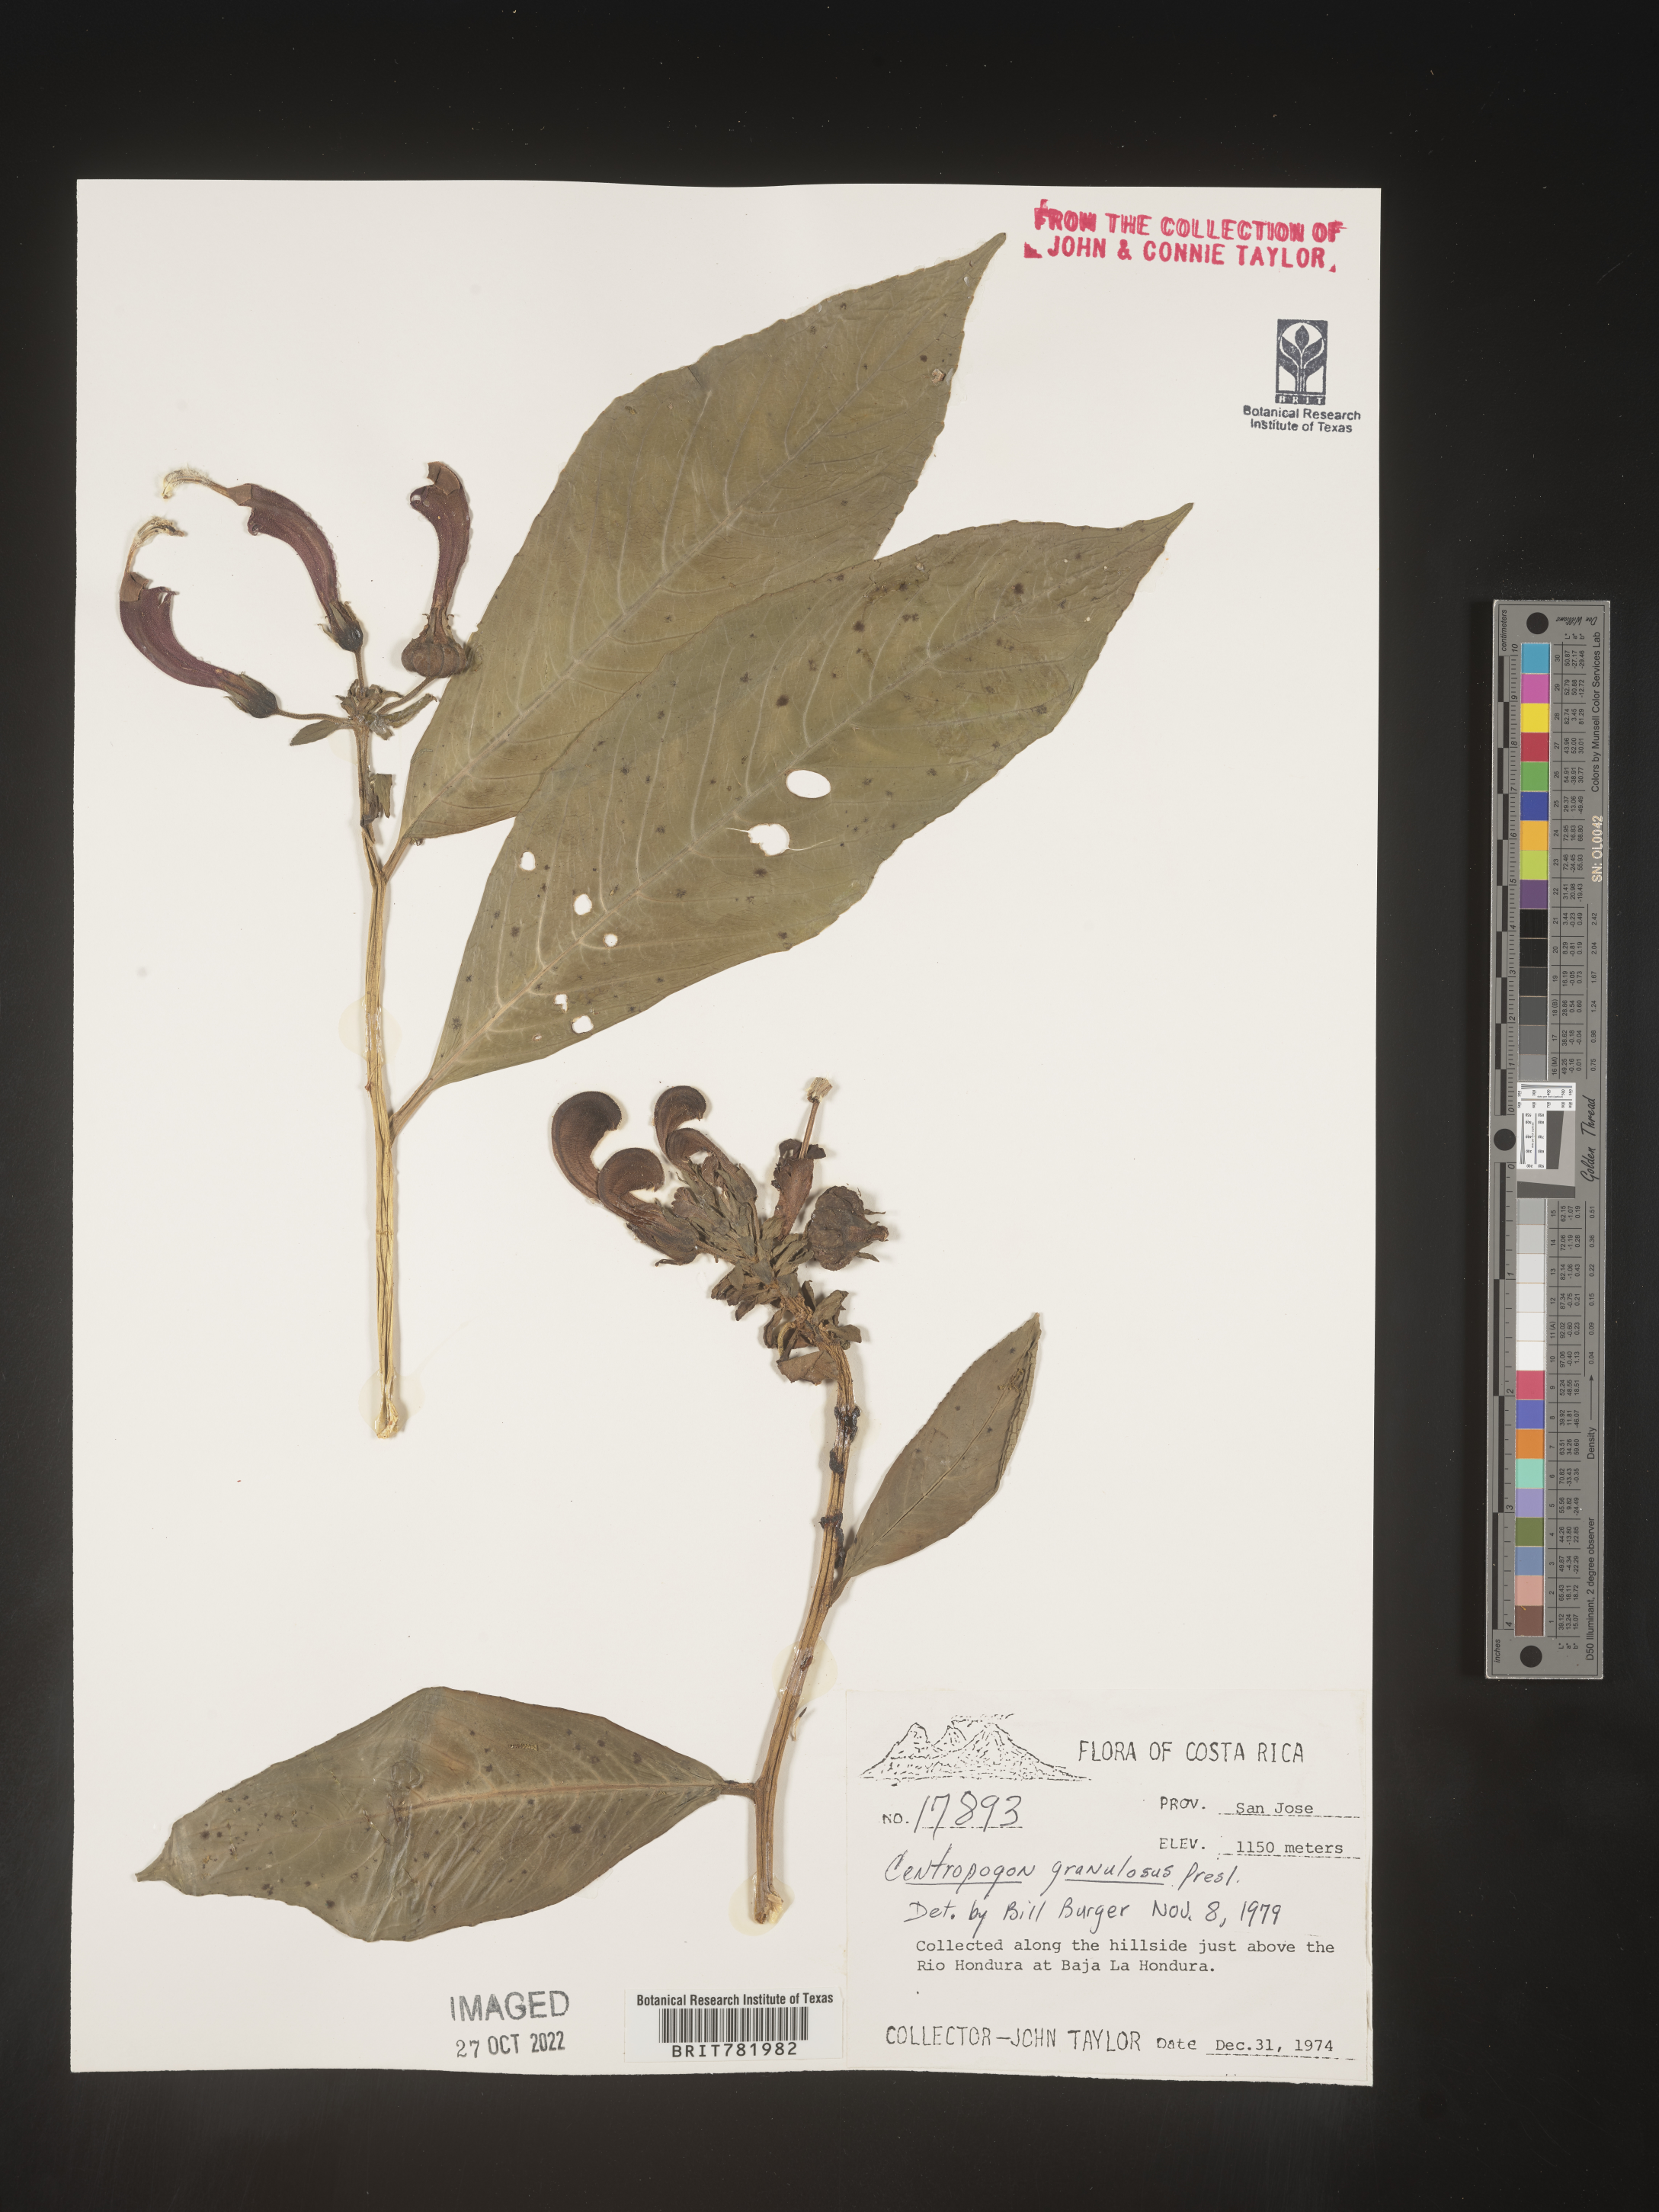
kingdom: Plantae
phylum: Tracheophyta
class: Magnoliopsida
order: Asterales
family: Campanulaceae
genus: Centropogon
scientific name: Centropogon
